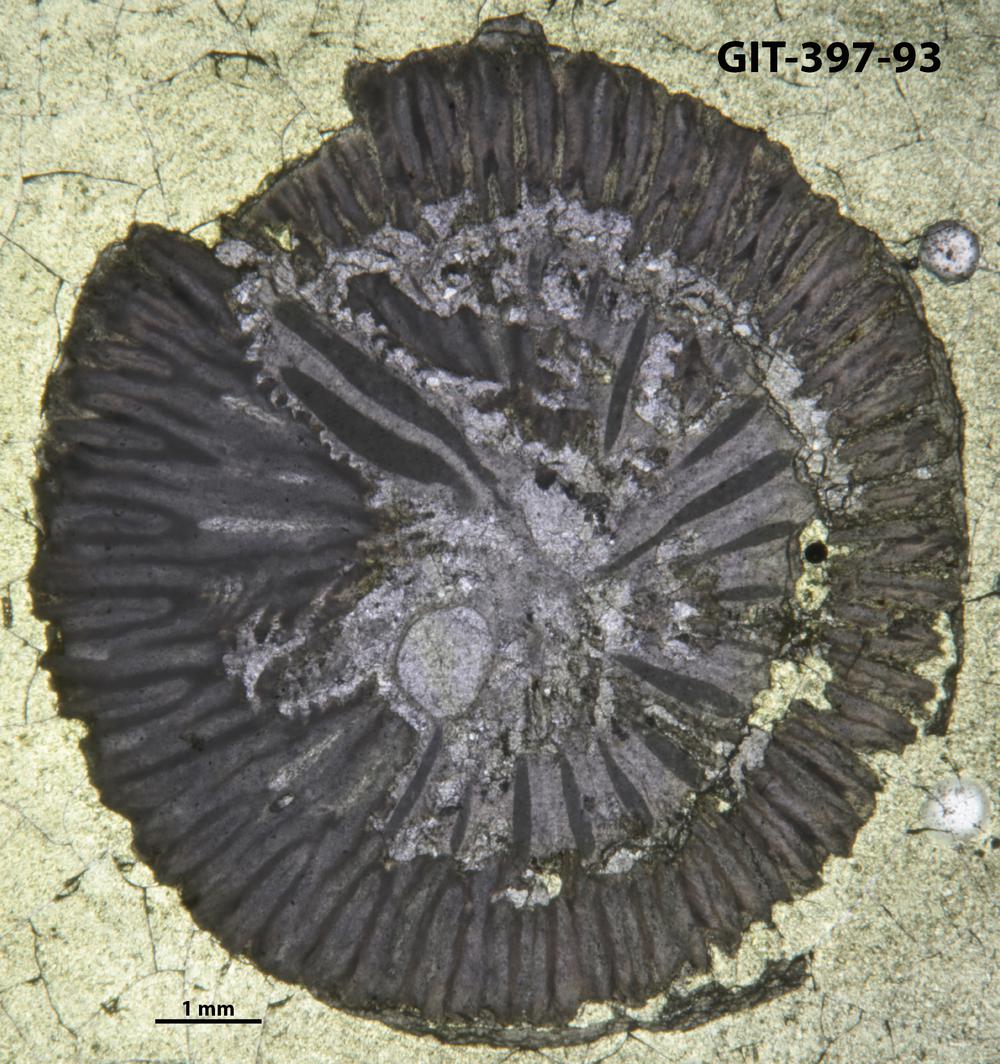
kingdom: Animalia
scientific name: Animalia
